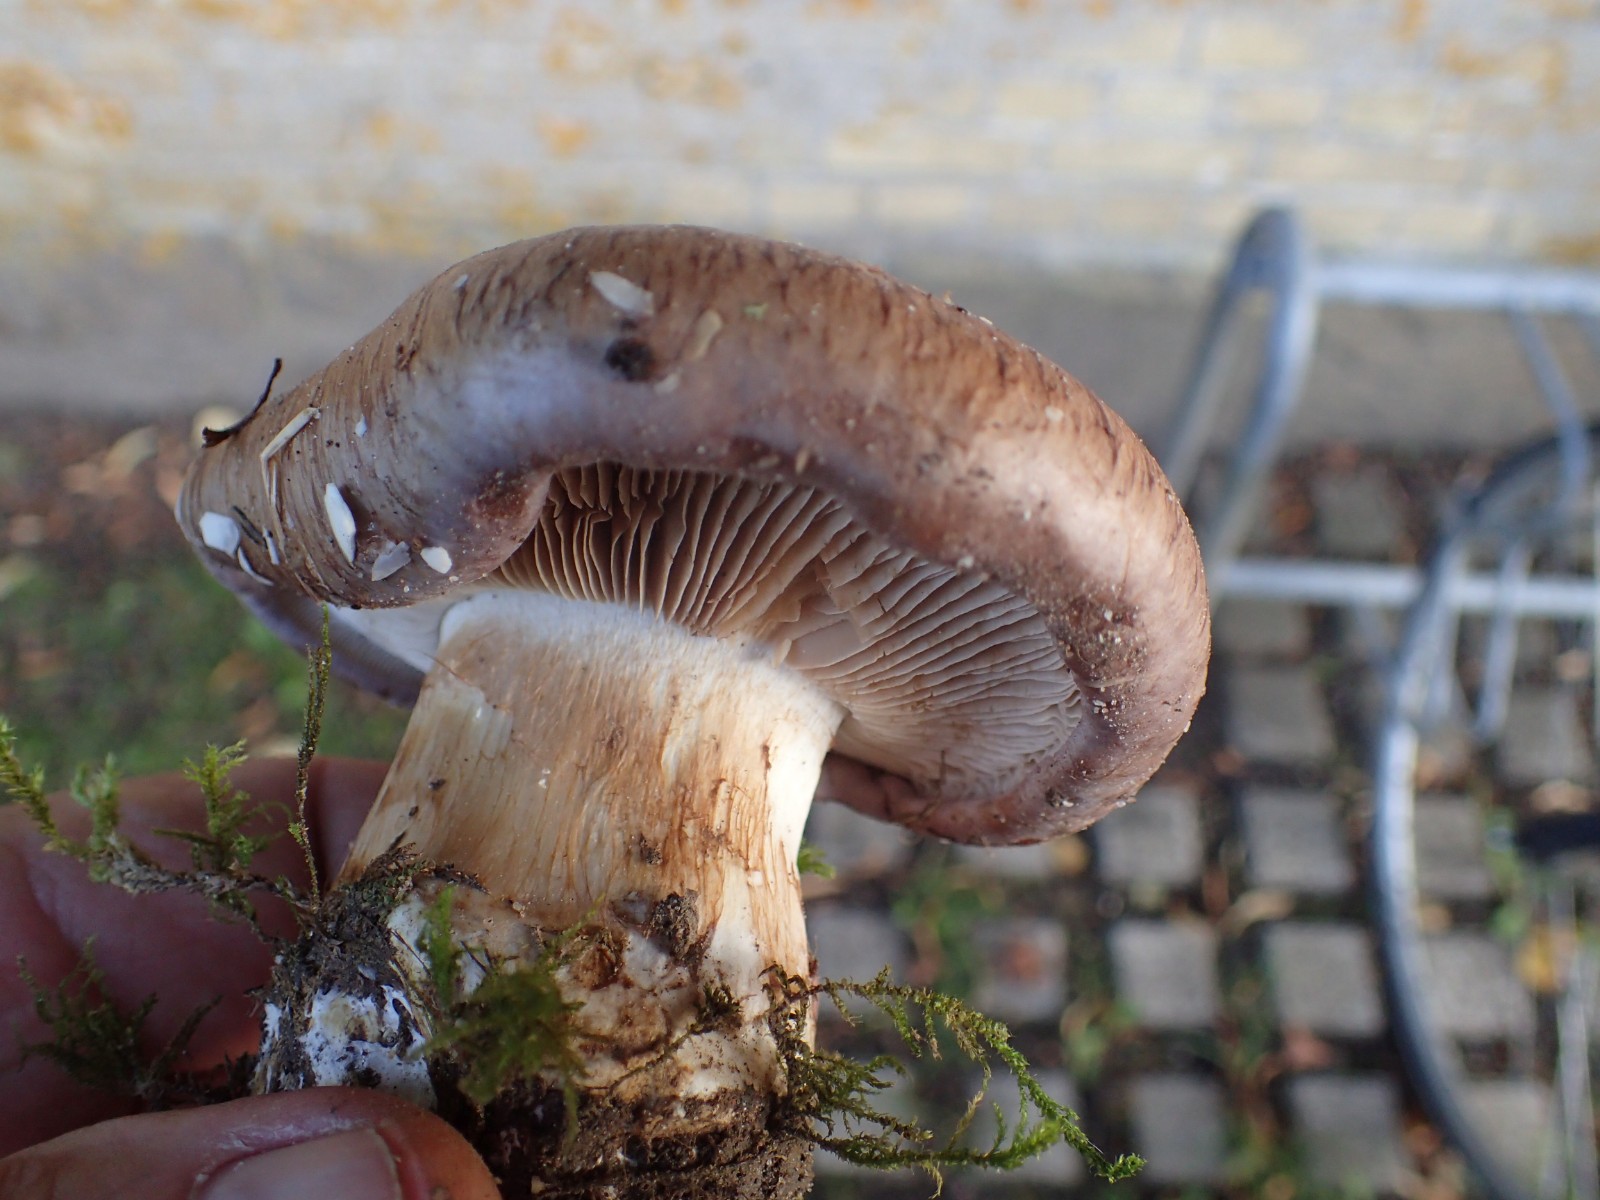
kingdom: Fungi
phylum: Basidiomycota
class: Agaricomycetes
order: Agaricales
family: Cortinariaceae
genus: Phlegmacium
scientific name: Phlegmacium balteatocumatile
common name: violettrådet slørhat
